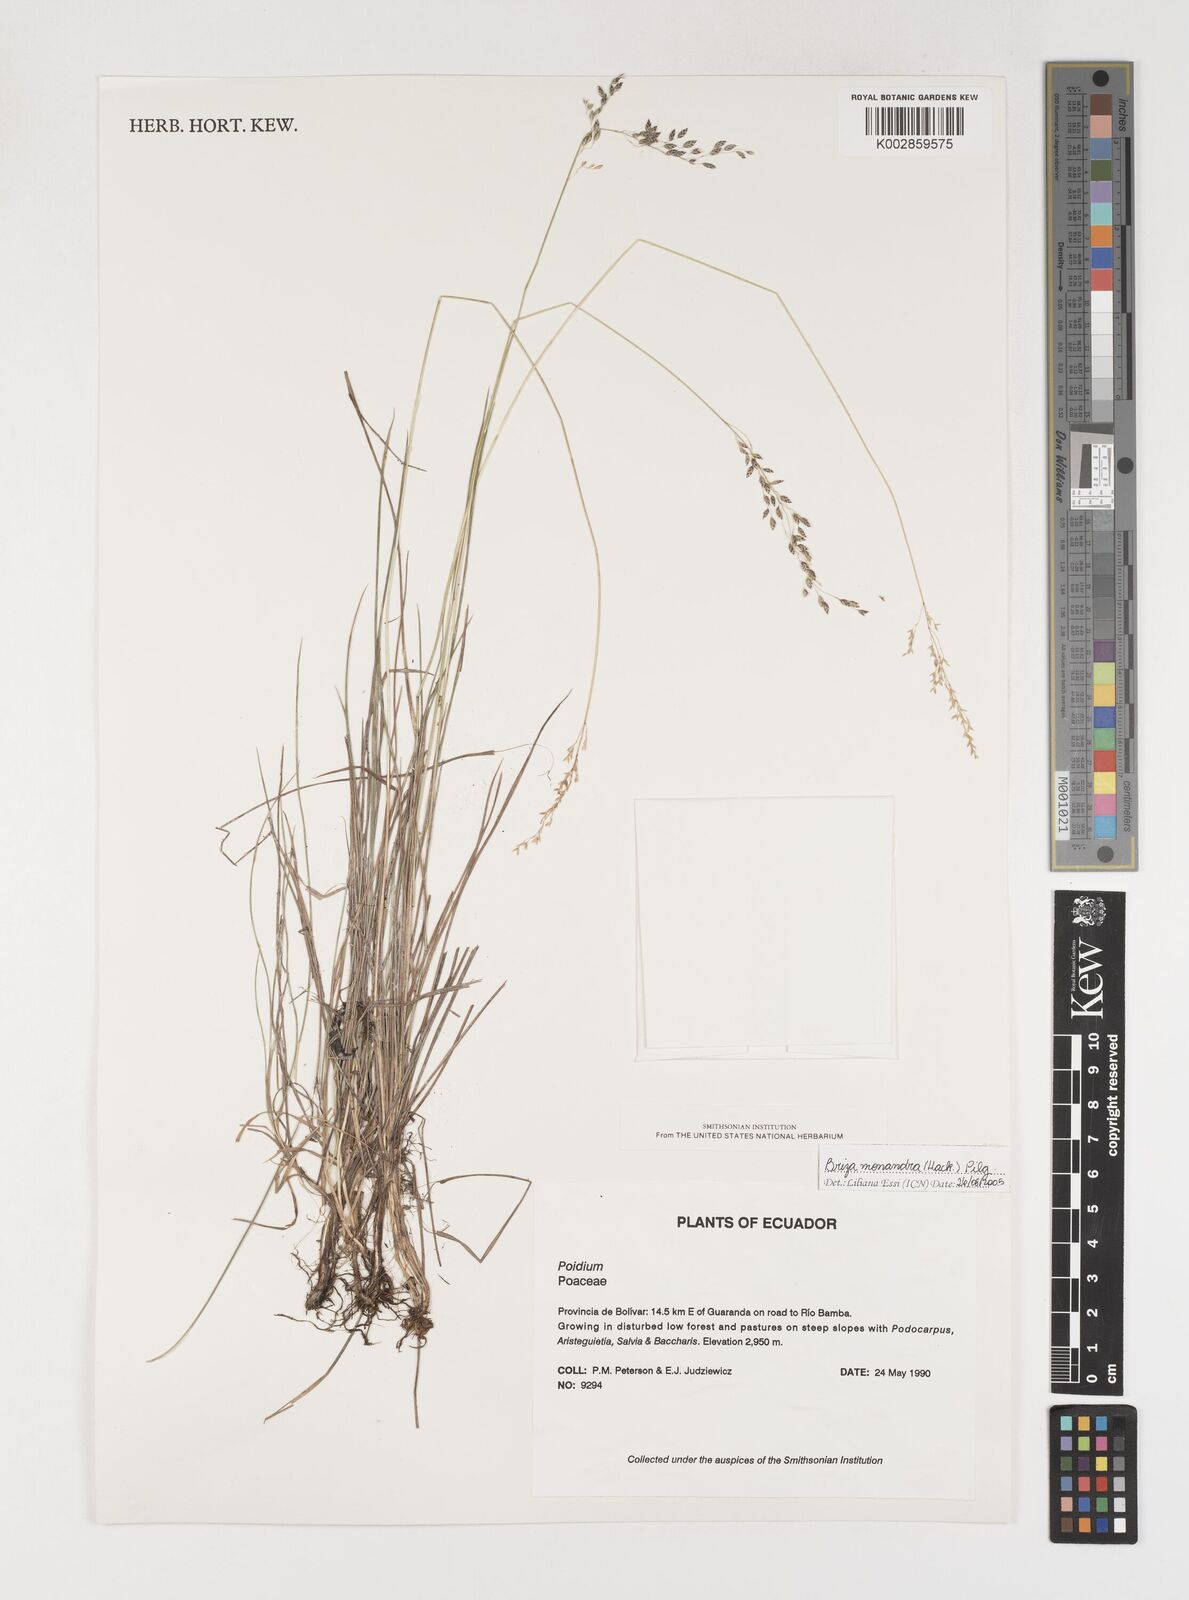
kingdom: Plantae
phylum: Tracheophyta
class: Liliopsida
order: Poales
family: Poaceae
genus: Poidium
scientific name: Poidium monandrum
